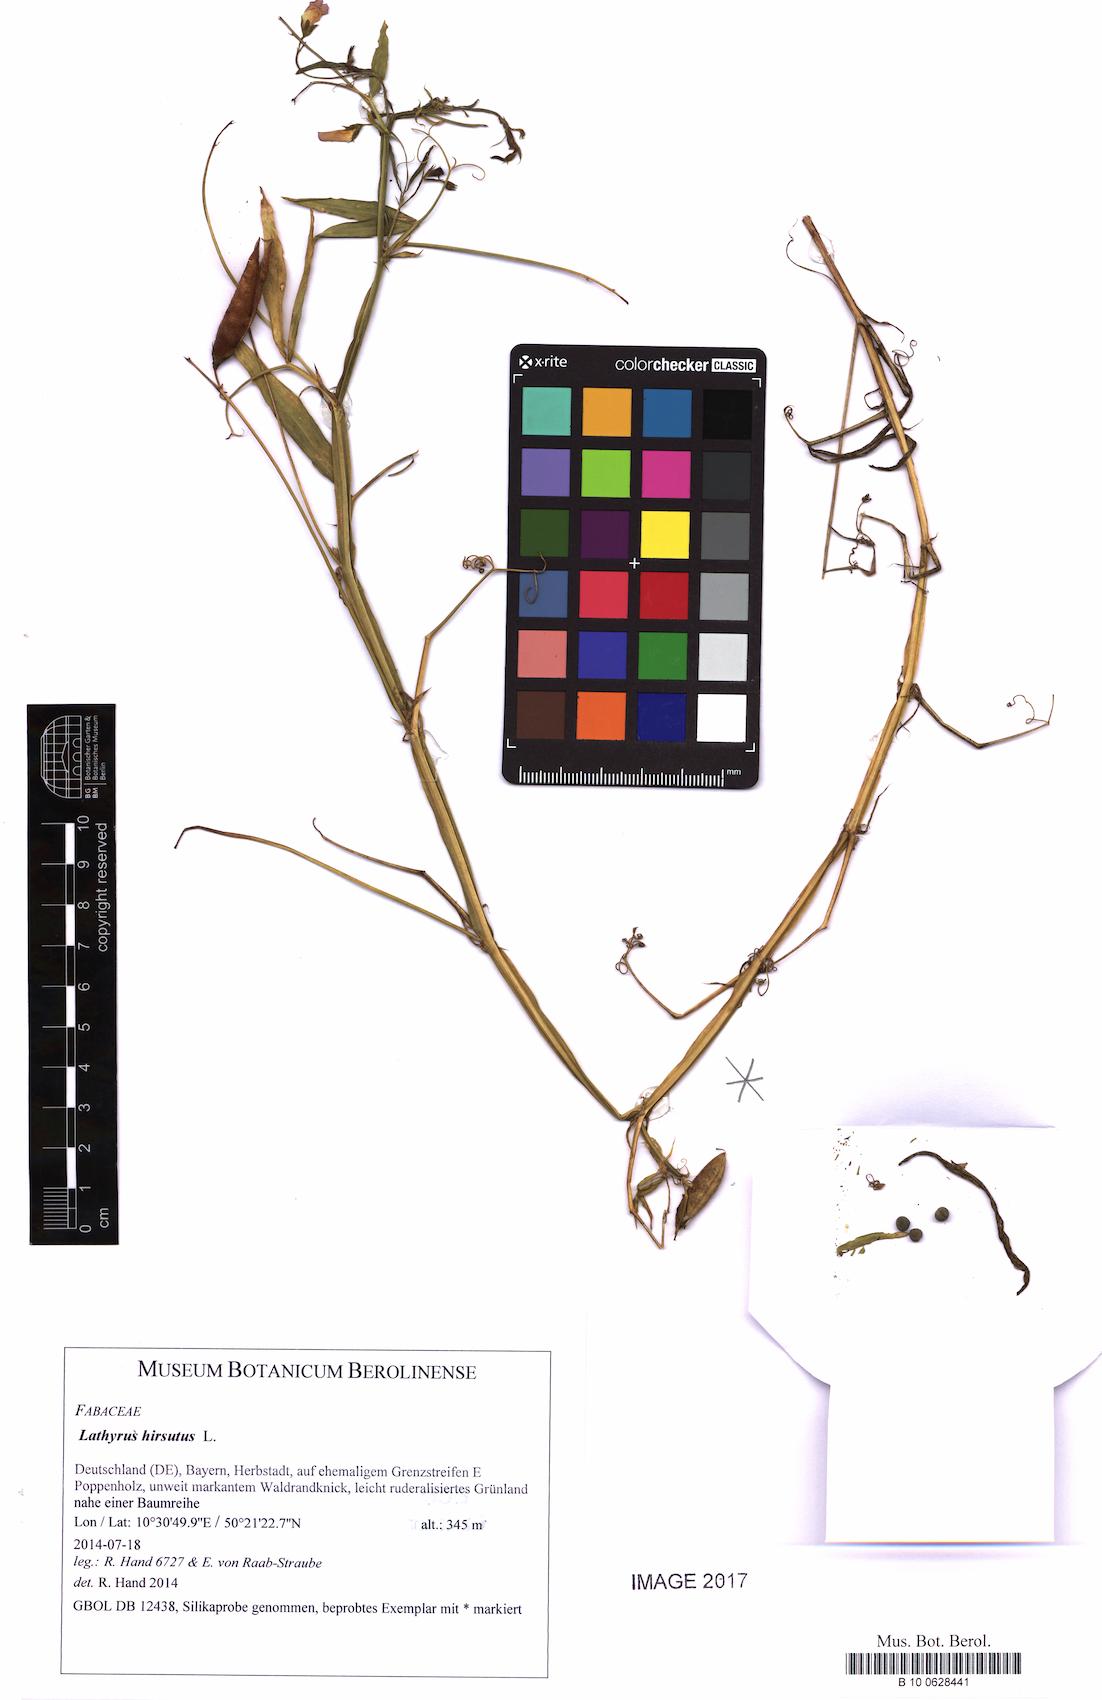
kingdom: Plantae
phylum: Tracheophyta
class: Magnoliopsida
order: Fabales
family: Fabaceae
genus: Lathyrus
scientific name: Lathyrus hirsutus
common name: Hairy vetchling
